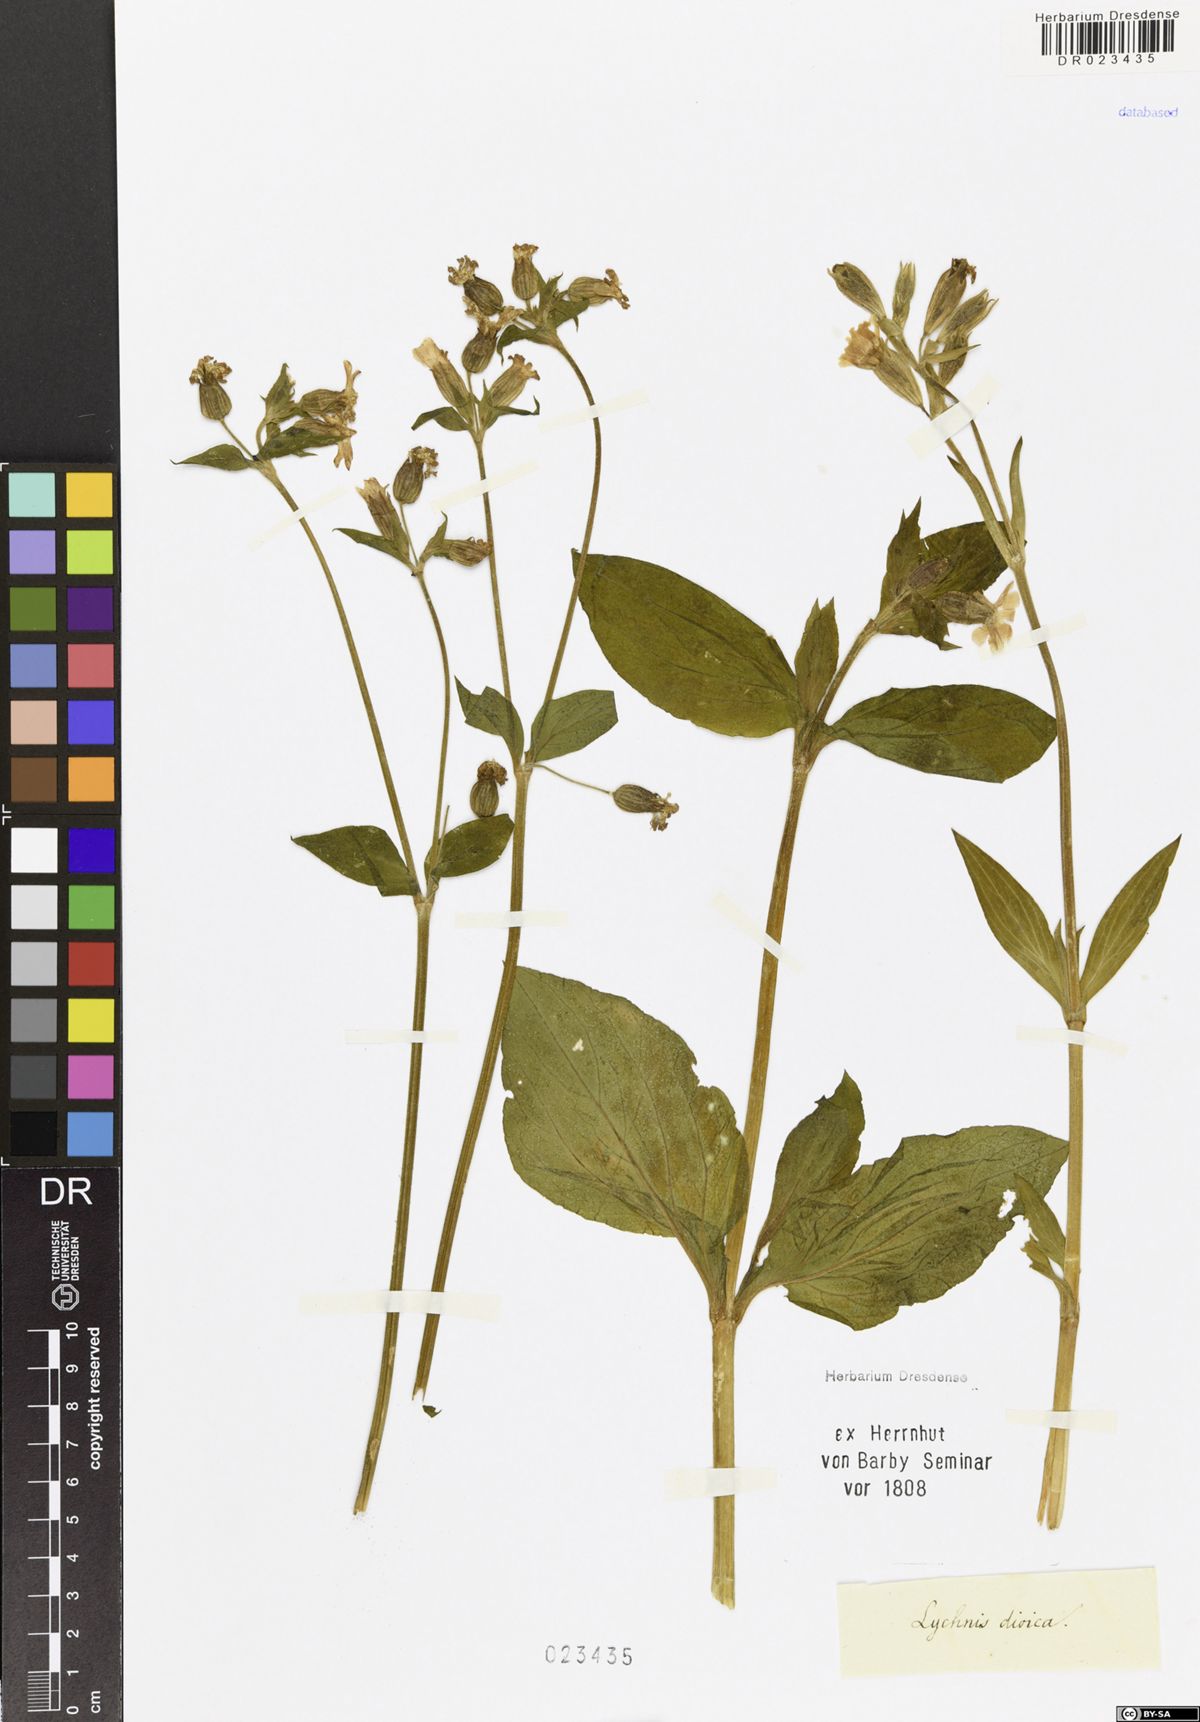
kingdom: Plantae
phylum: Tracheophyta
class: Magnoliopsida
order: Caryophyllales
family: Caryophyllaceae
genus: Silene
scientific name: Silene dioica
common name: Red campion
